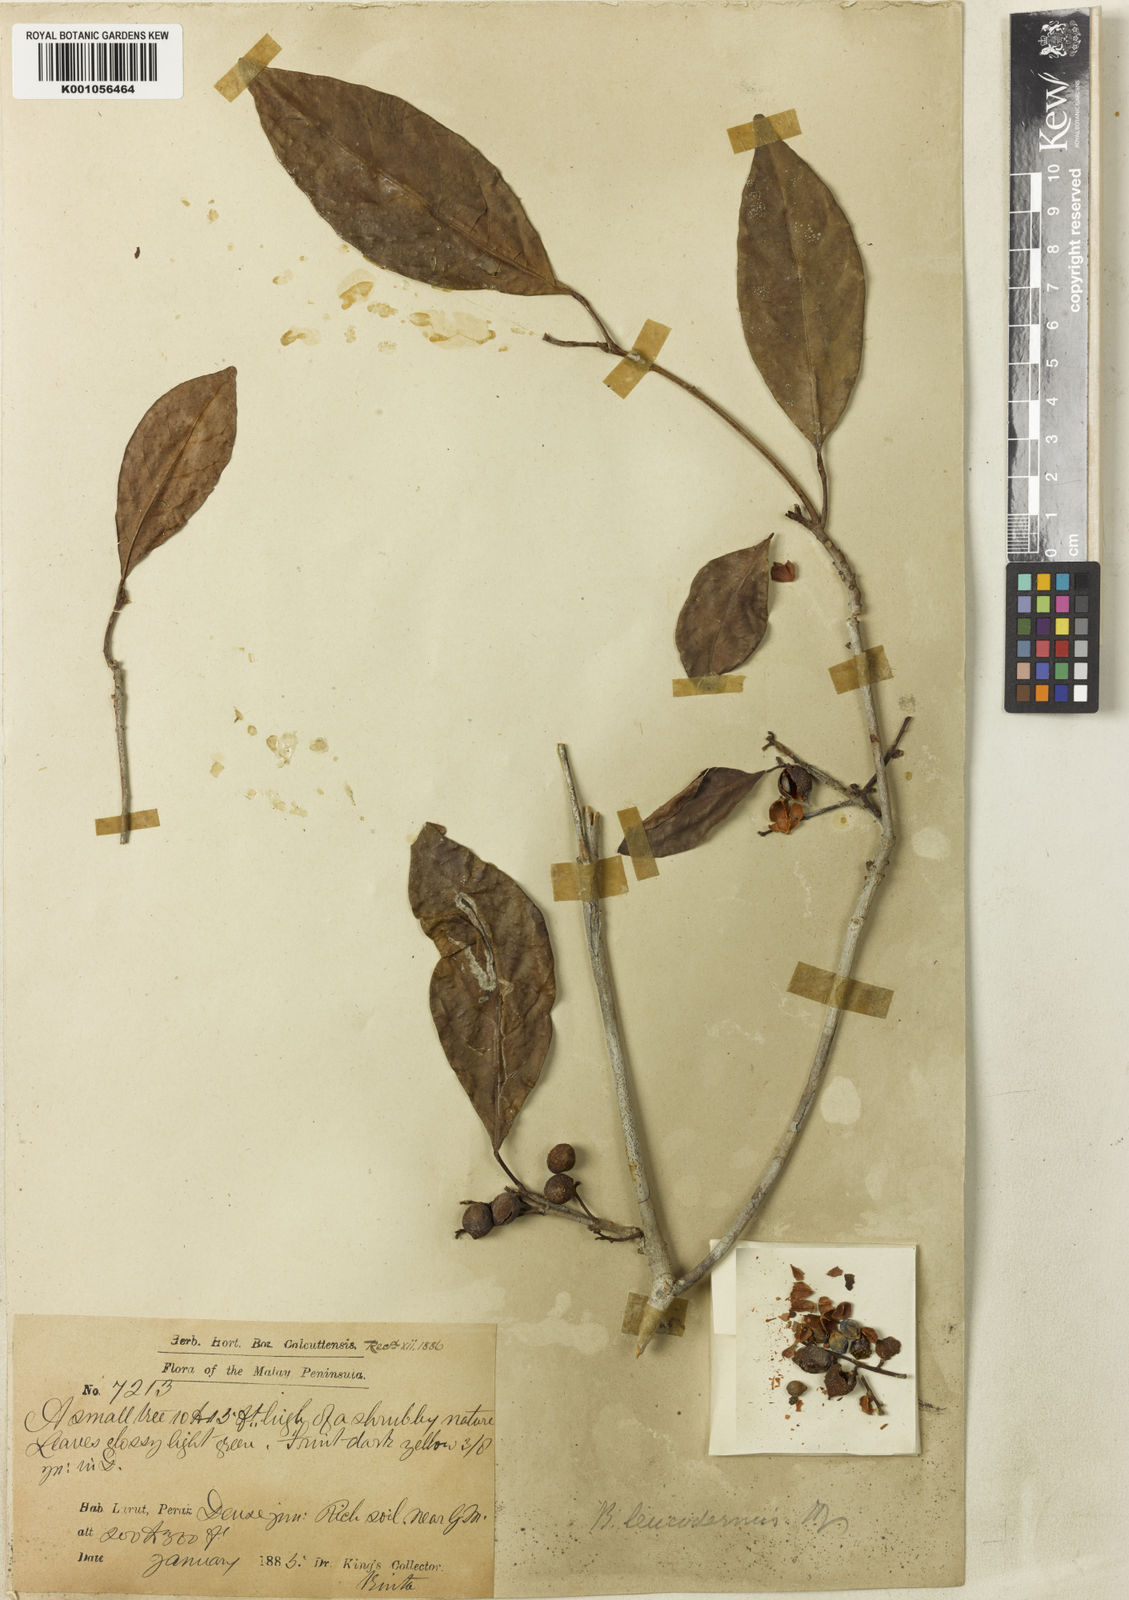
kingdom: Plantae
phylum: Tracheophyta
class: Magnoliopsida
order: Malpighiales
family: Phyllanthaceae
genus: Baccaurea
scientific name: Baccaurea
